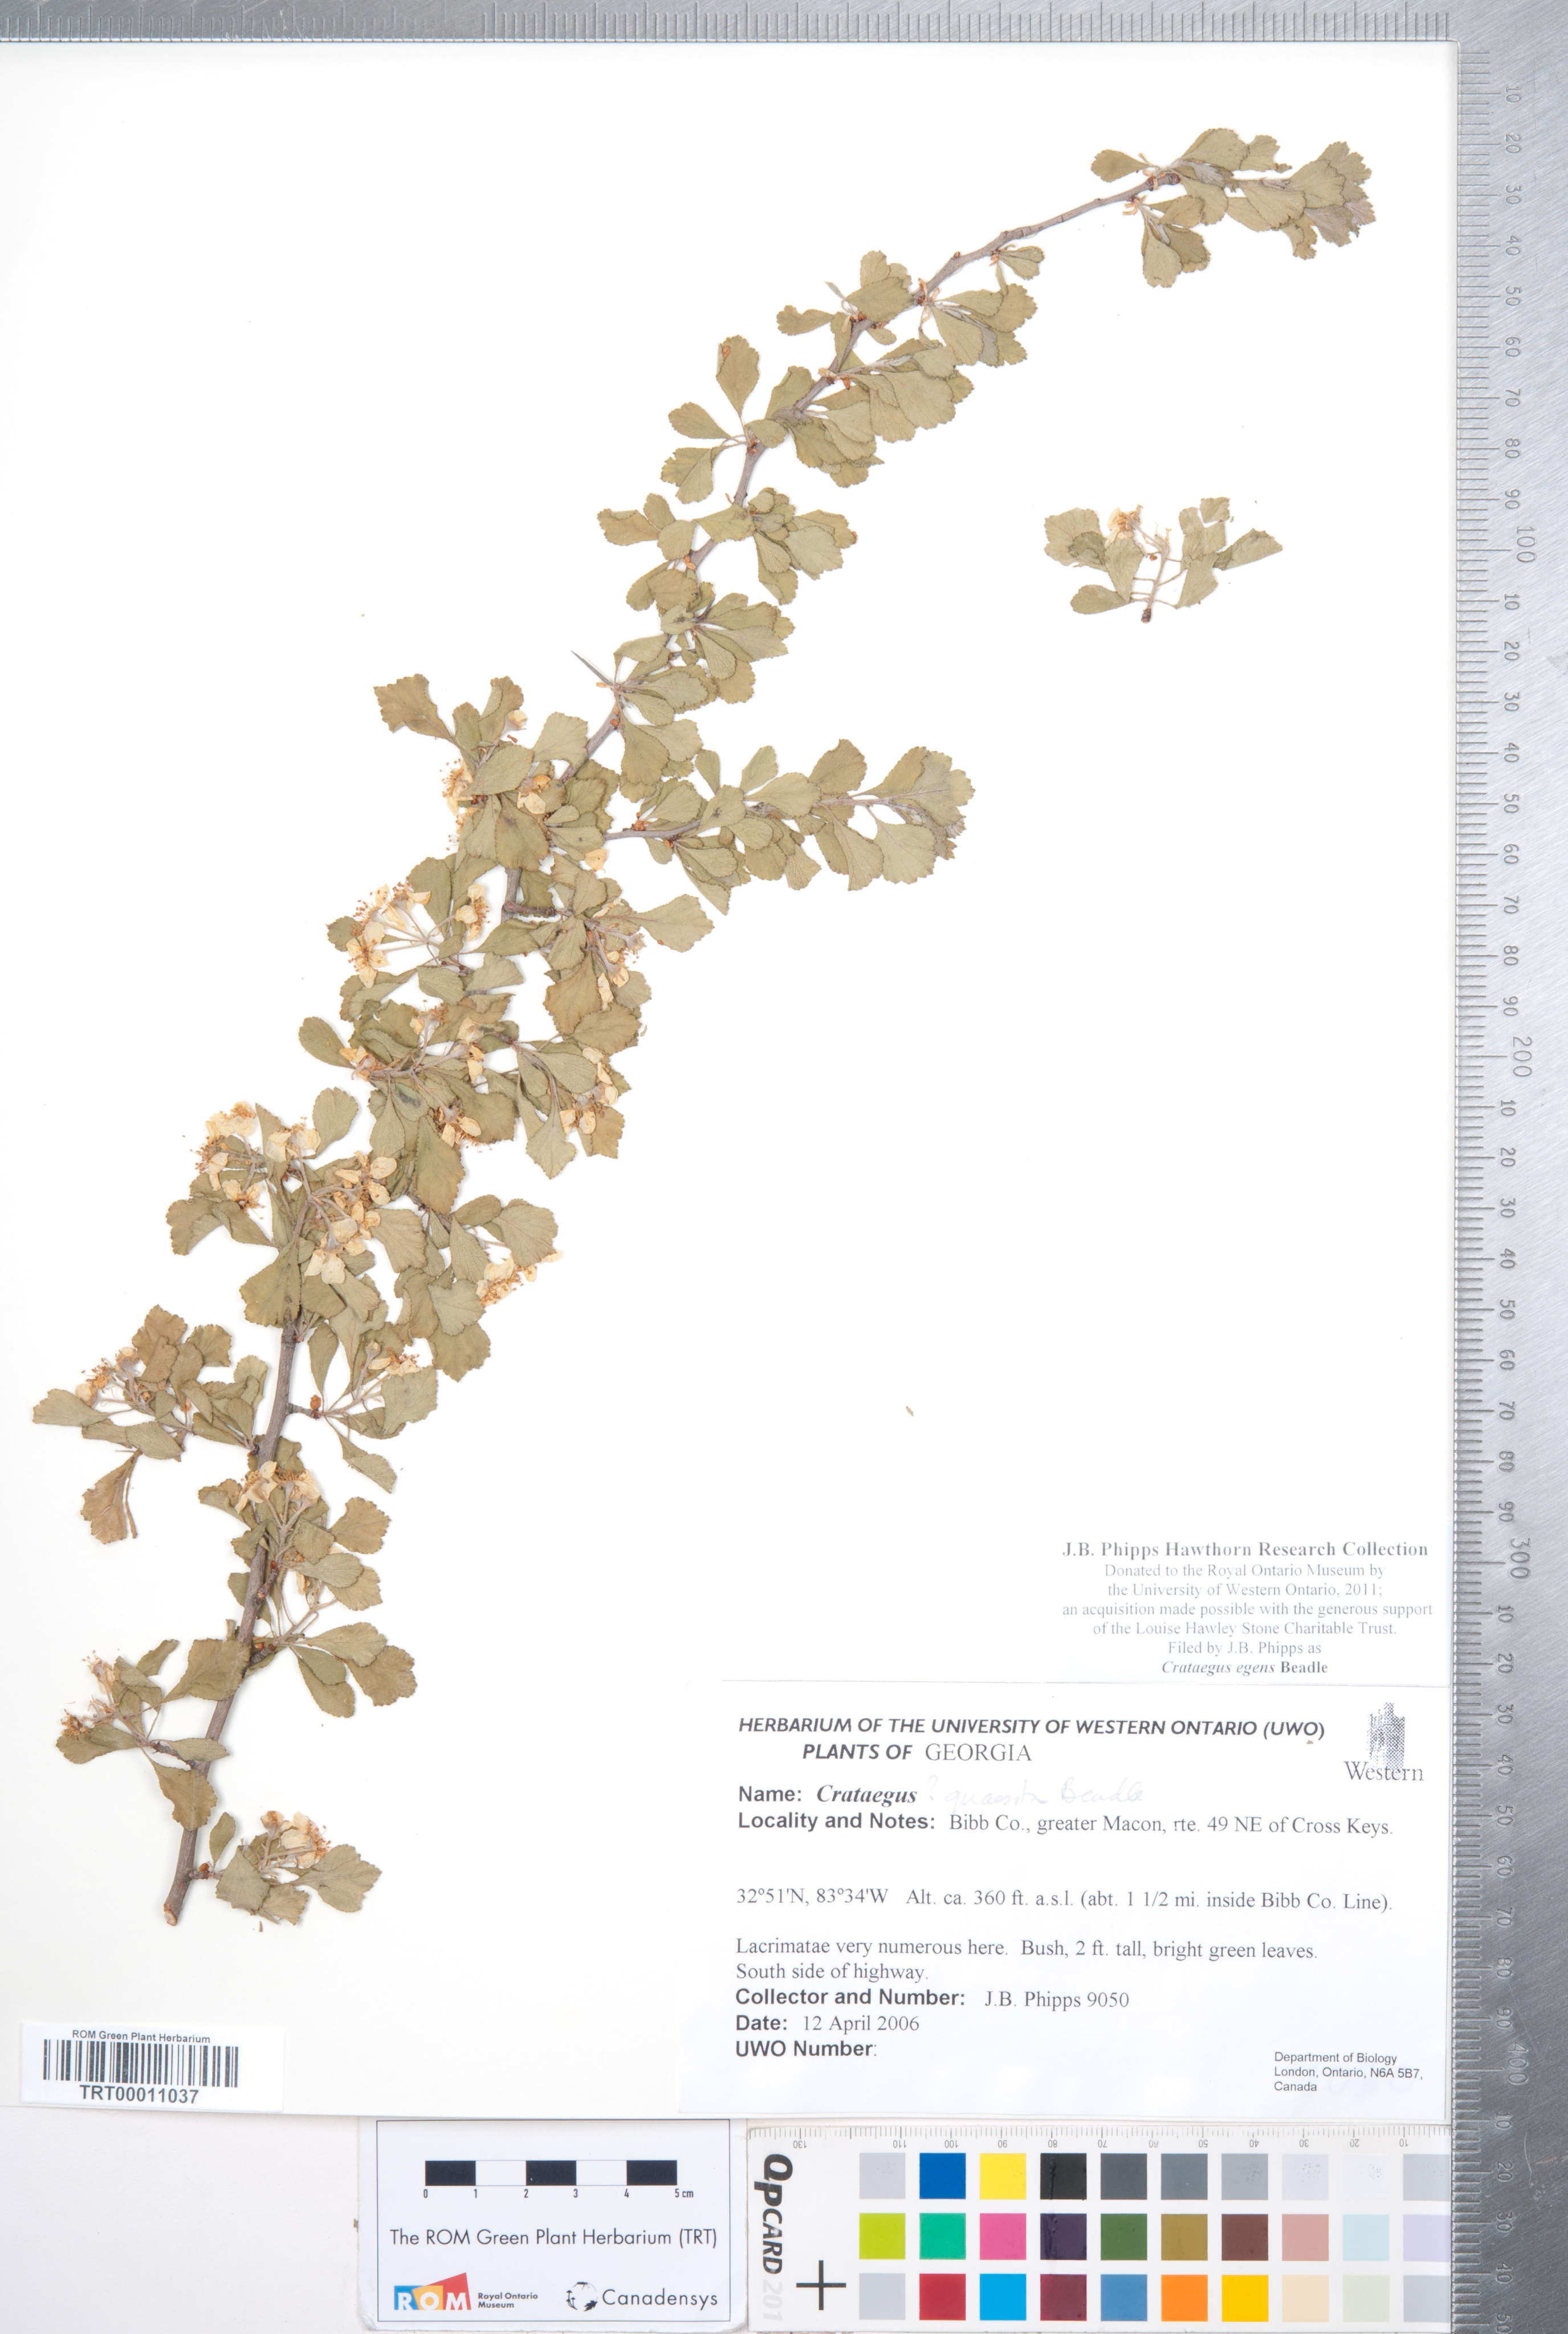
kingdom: Plantae
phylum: Tracheophyta
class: Magnoliopsida
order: Rosales
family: Rosaceae
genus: Crataegus
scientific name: Crataegus senta
